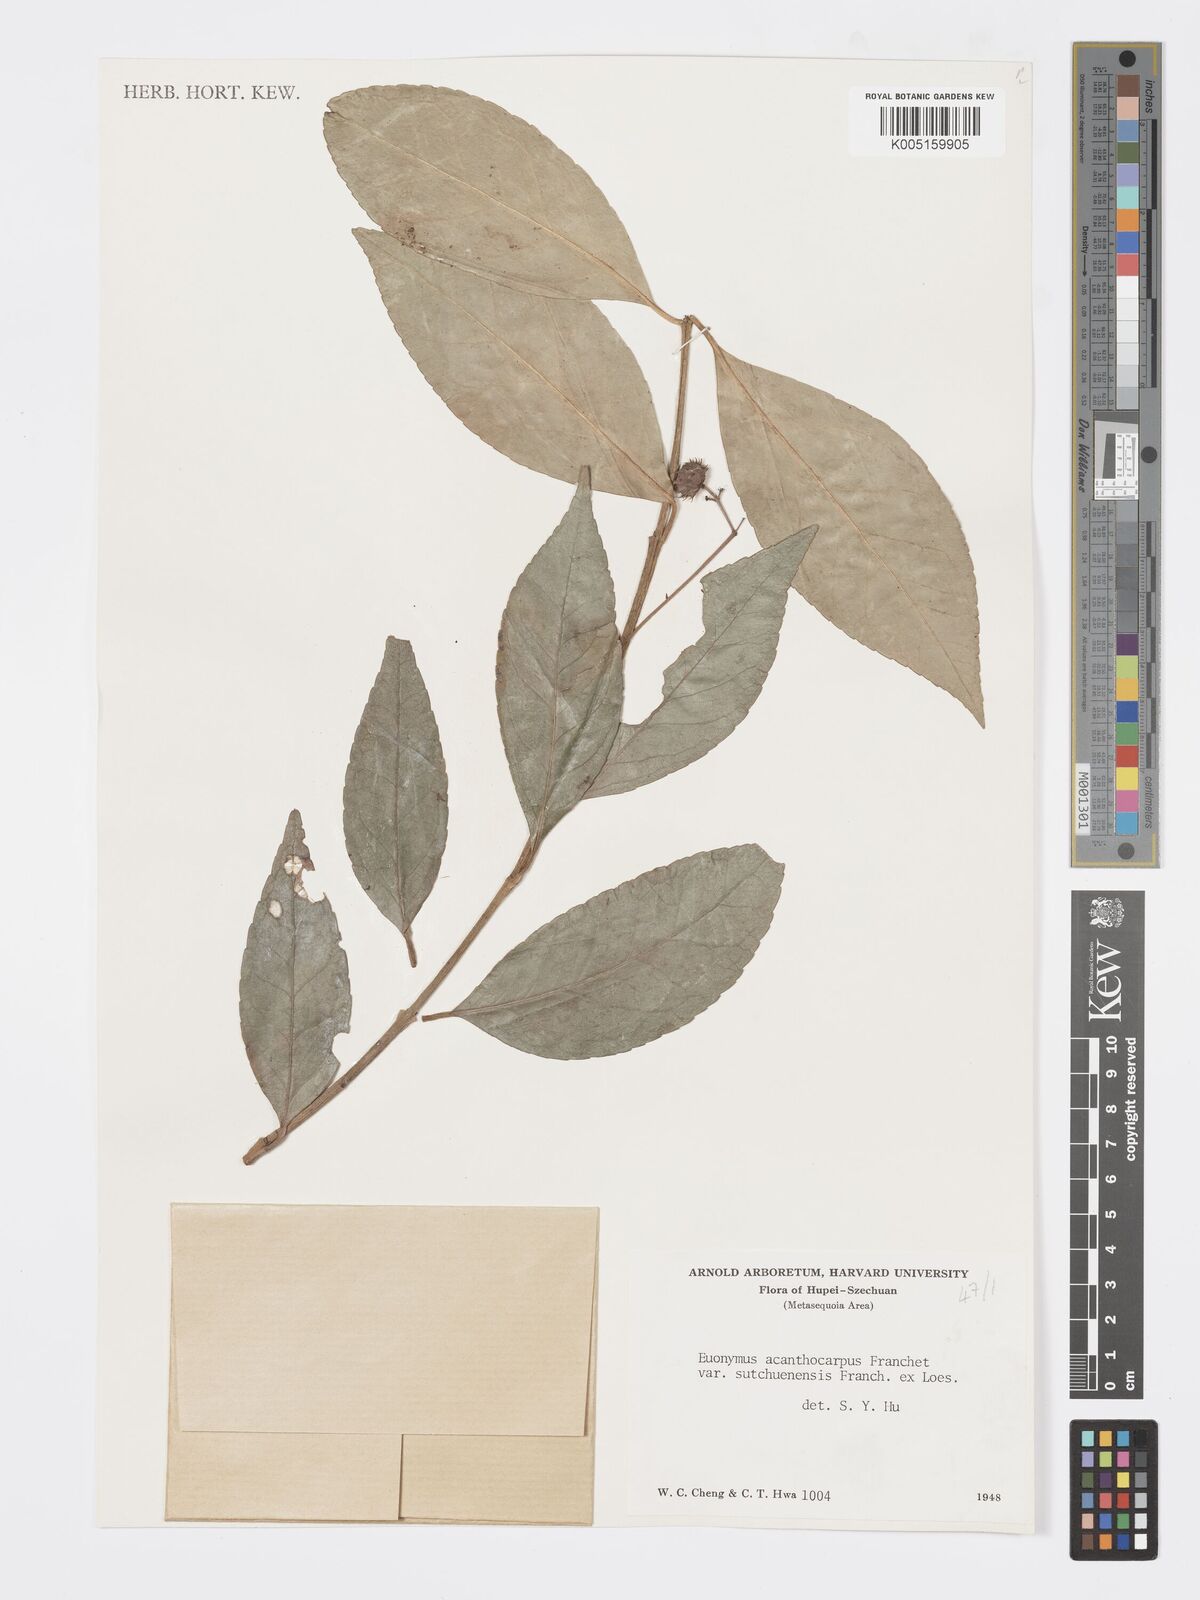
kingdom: Plantae
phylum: Tracheophyta
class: Magnoliopsida
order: Celastrales
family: Celastraceae
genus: Euonymus
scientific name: Euonymus acanthocarpus
